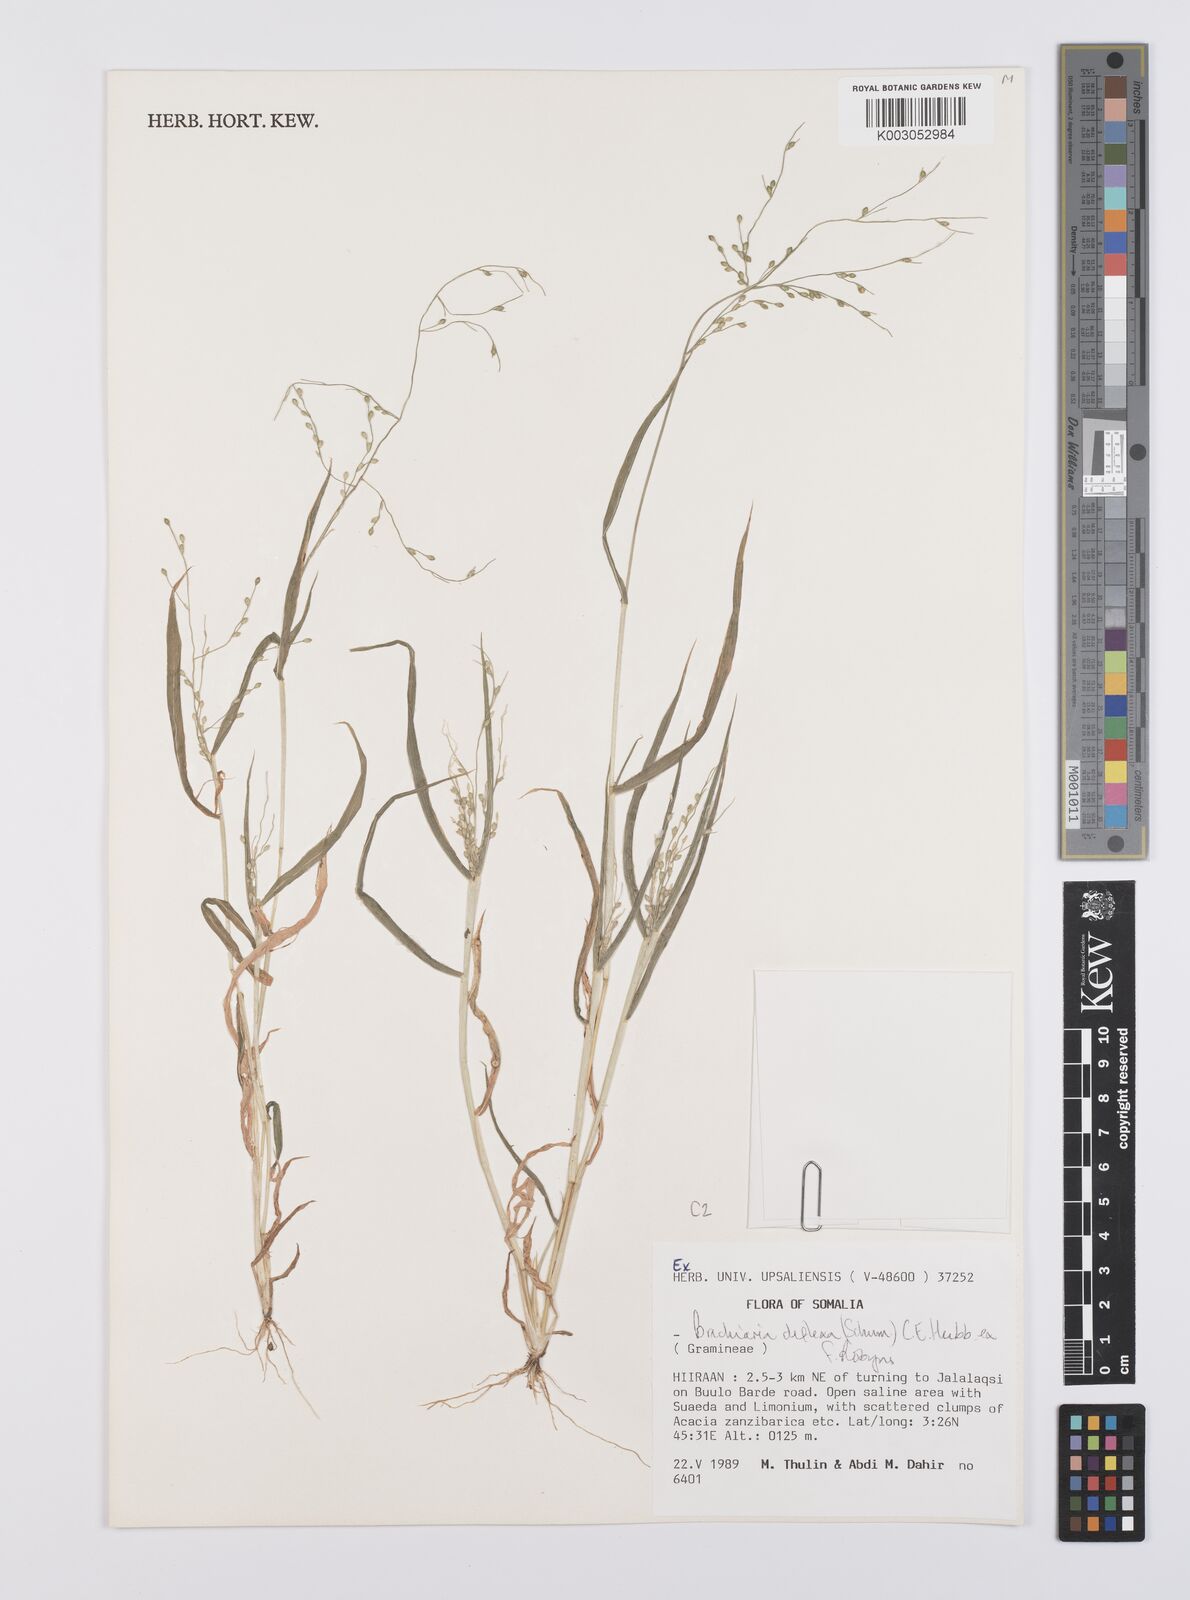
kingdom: Plantae
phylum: Tracheophyta
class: Liliopsida
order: Poales
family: Poaceae
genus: Urochloa
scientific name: Urochloa deflexa
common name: Guinea millet
